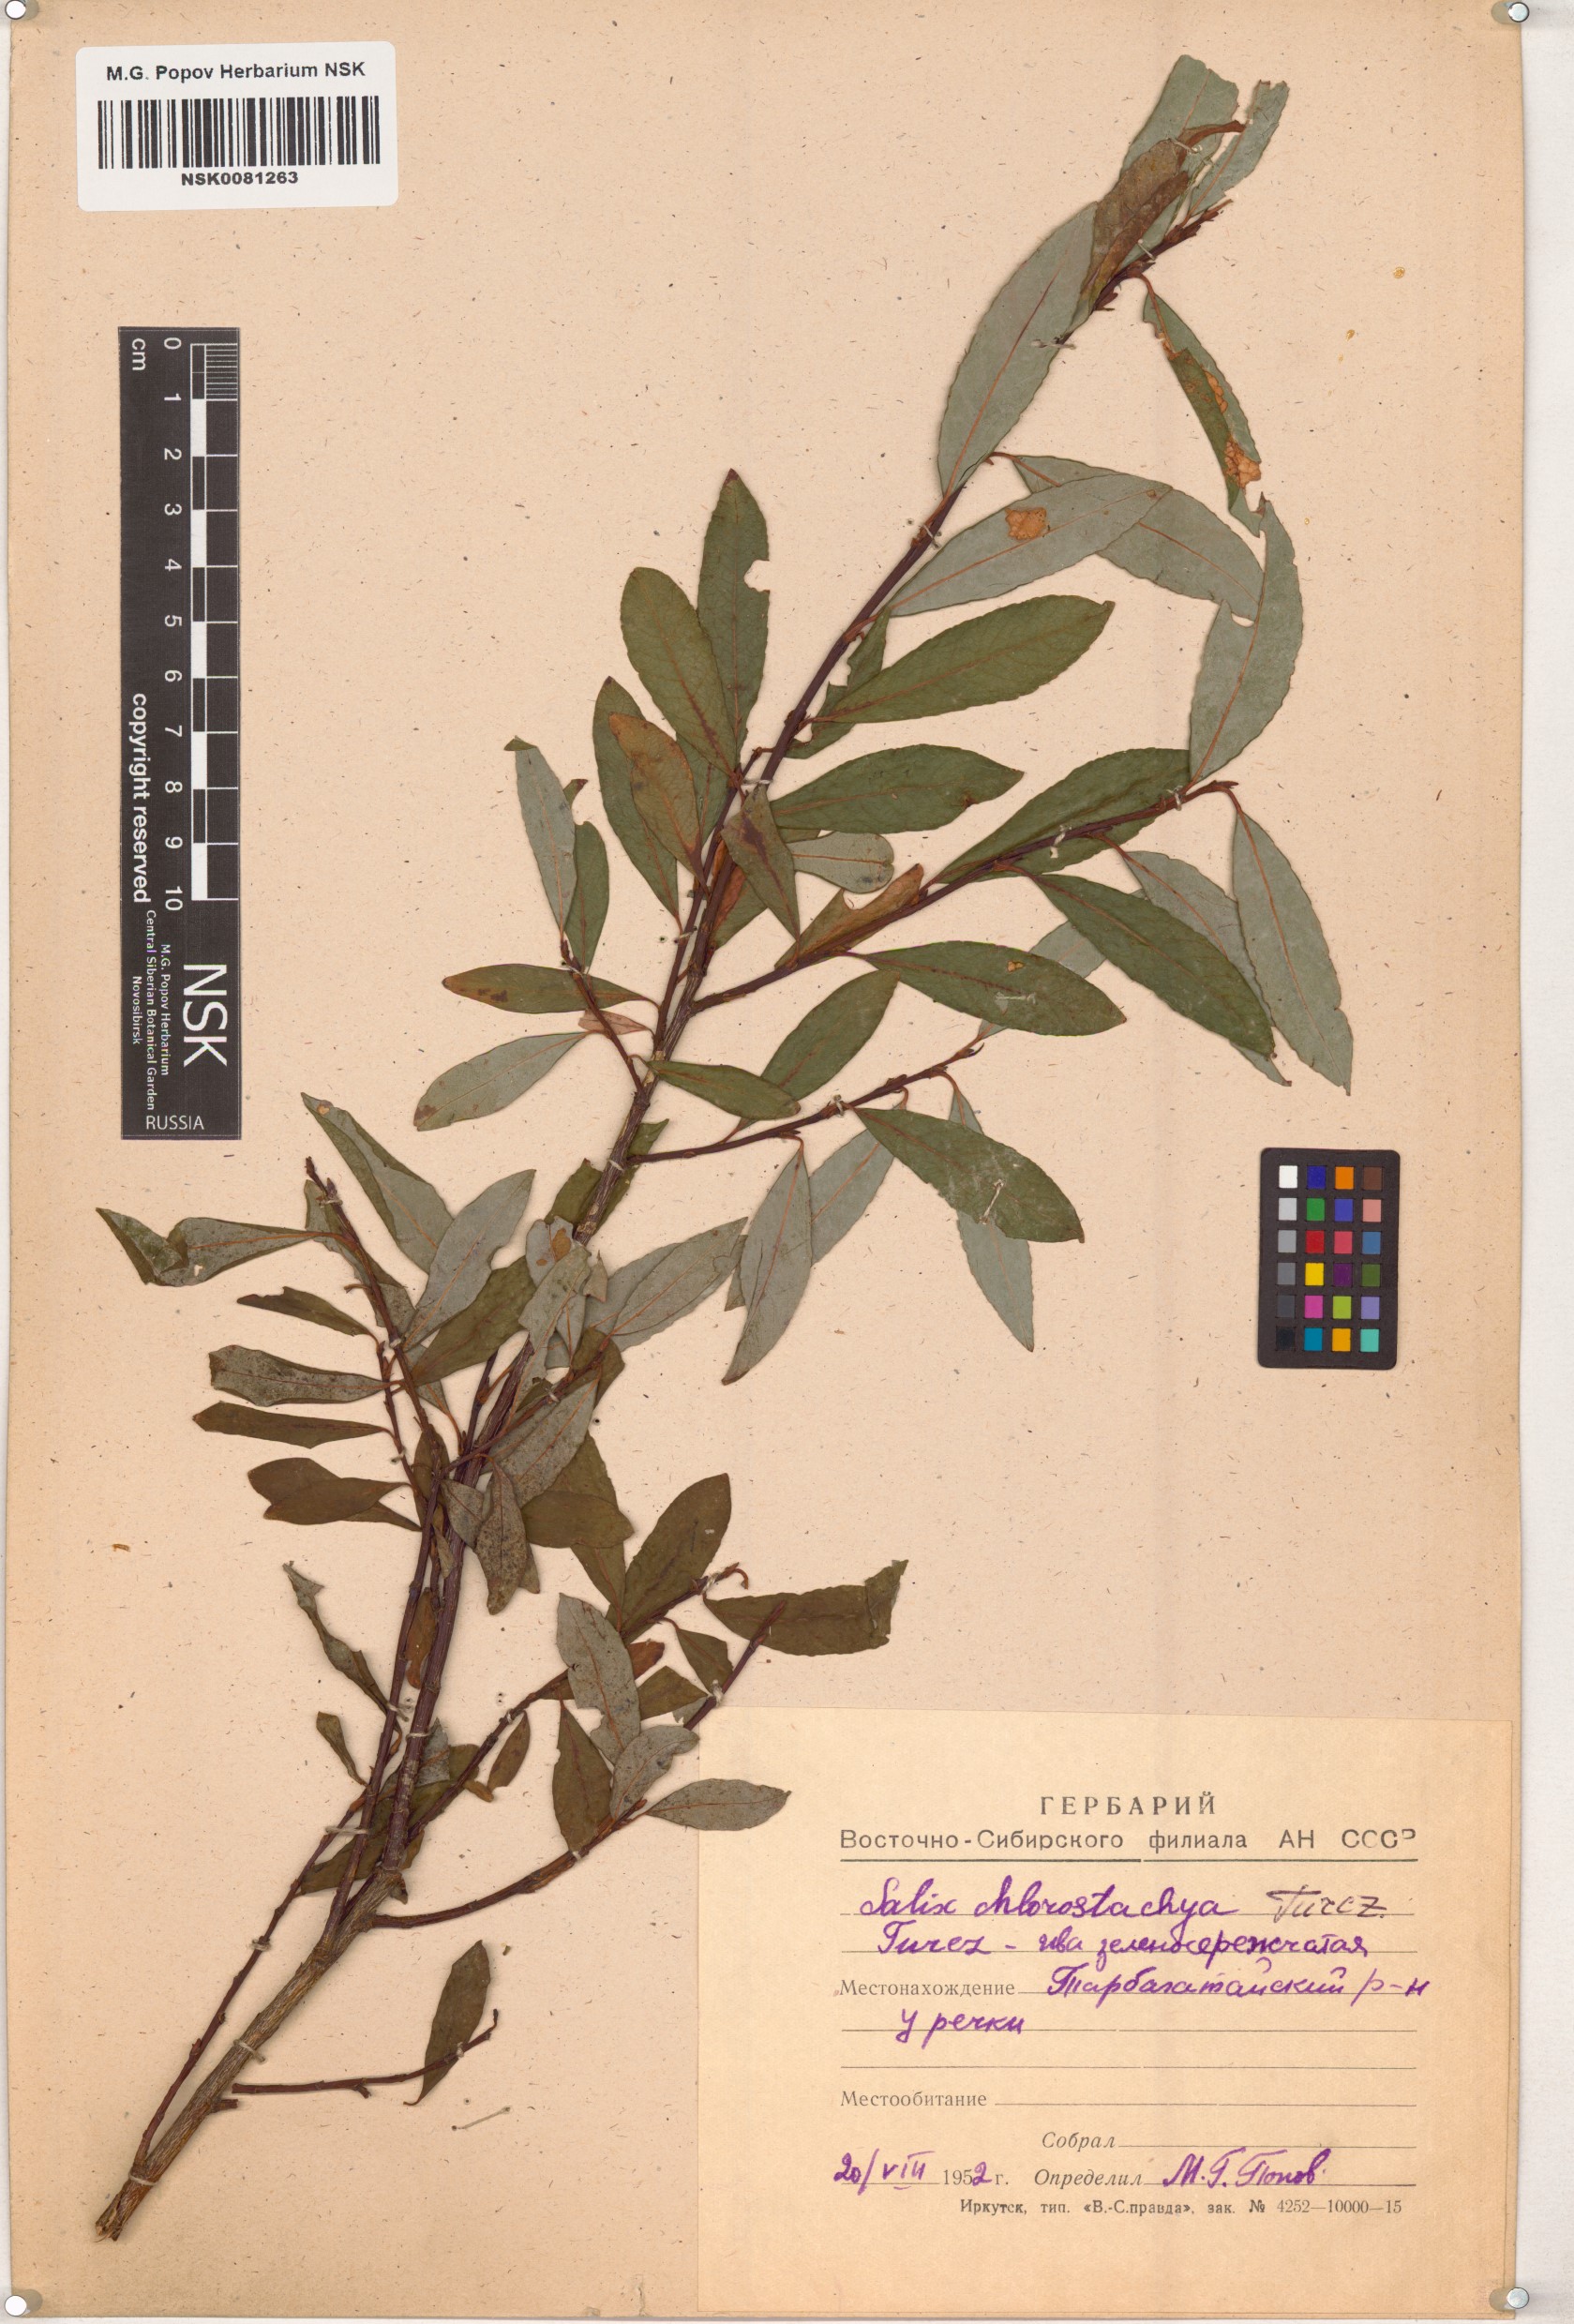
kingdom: Plantae
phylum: Tracheophyta
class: Magnoliopsida
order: Malpighiales
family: Salicaceae
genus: Salix
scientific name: Salix rhamnifolia
